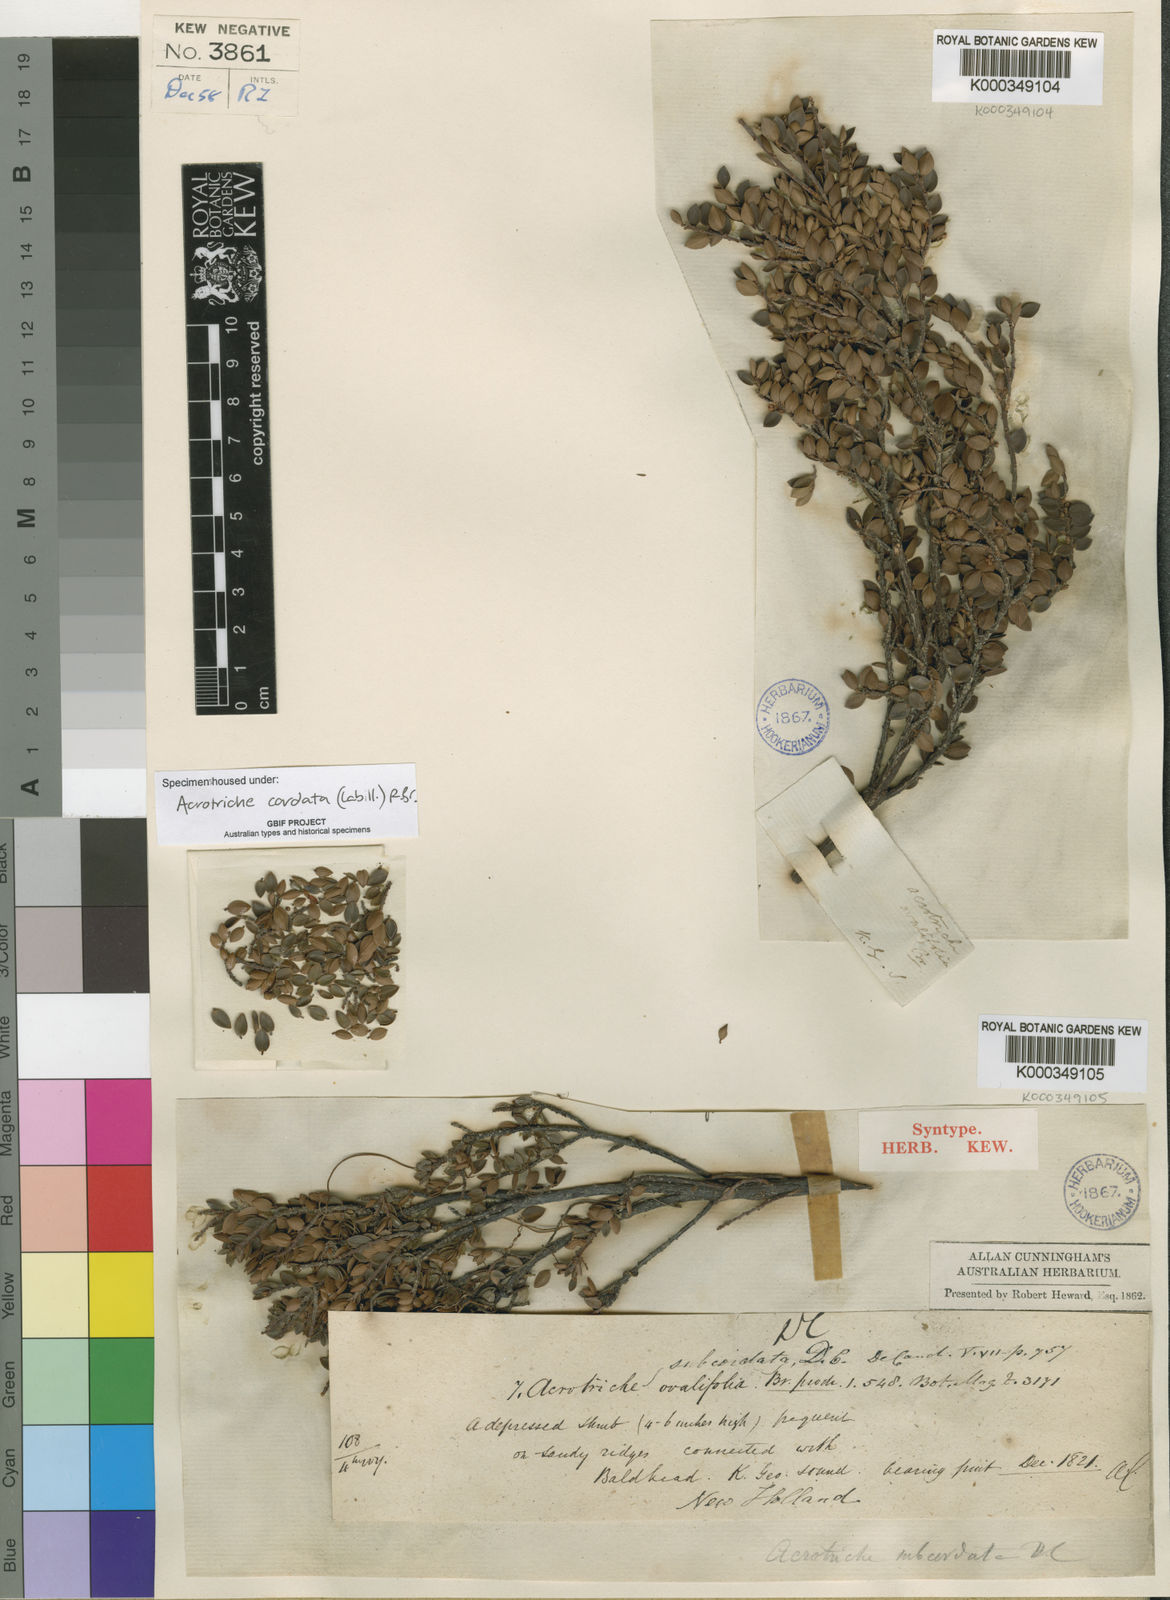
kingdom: Plantae
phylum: Tracheophyta
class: Magnoliopsida
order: Ericales
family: Ericaceae
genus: Acrotriche
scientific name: Acrotriche cordata
